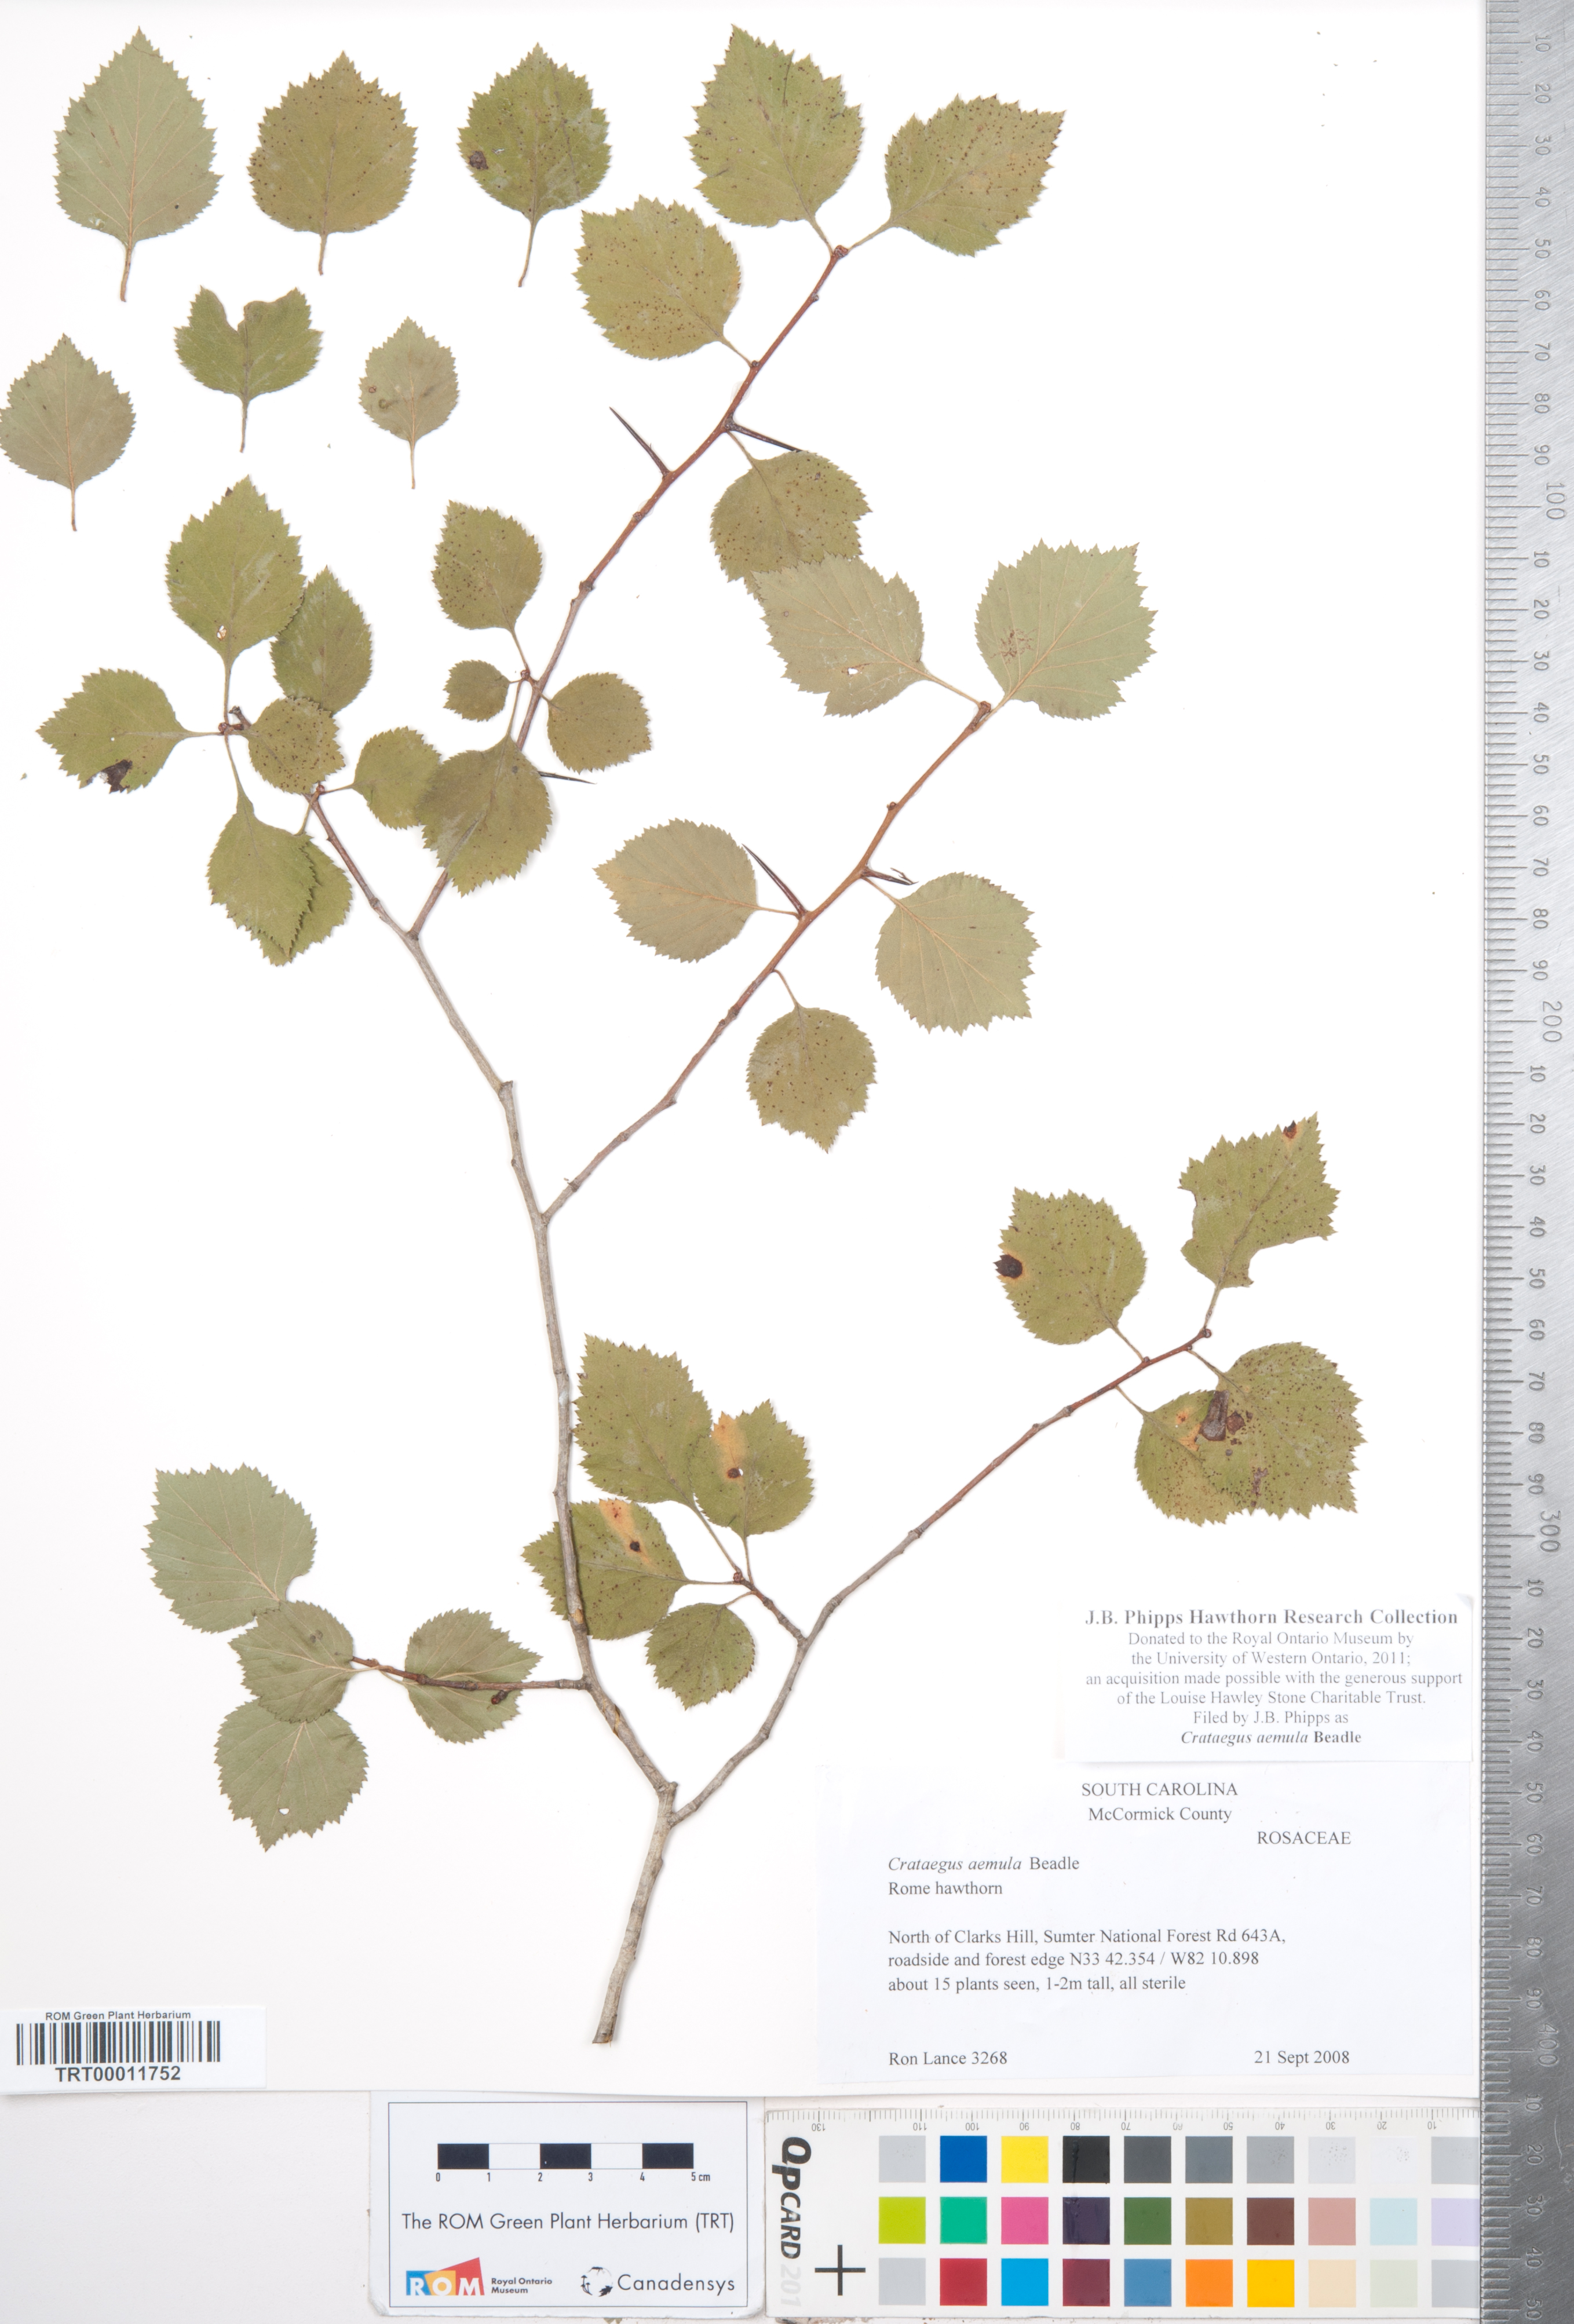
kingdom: Plantae
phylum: Tracheophyta
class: Magnoliopsida
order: Rosales
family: Rosaceae
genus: Crataegus
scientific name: Crataegus iracunda
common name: Stolon-bearing hawthorn
